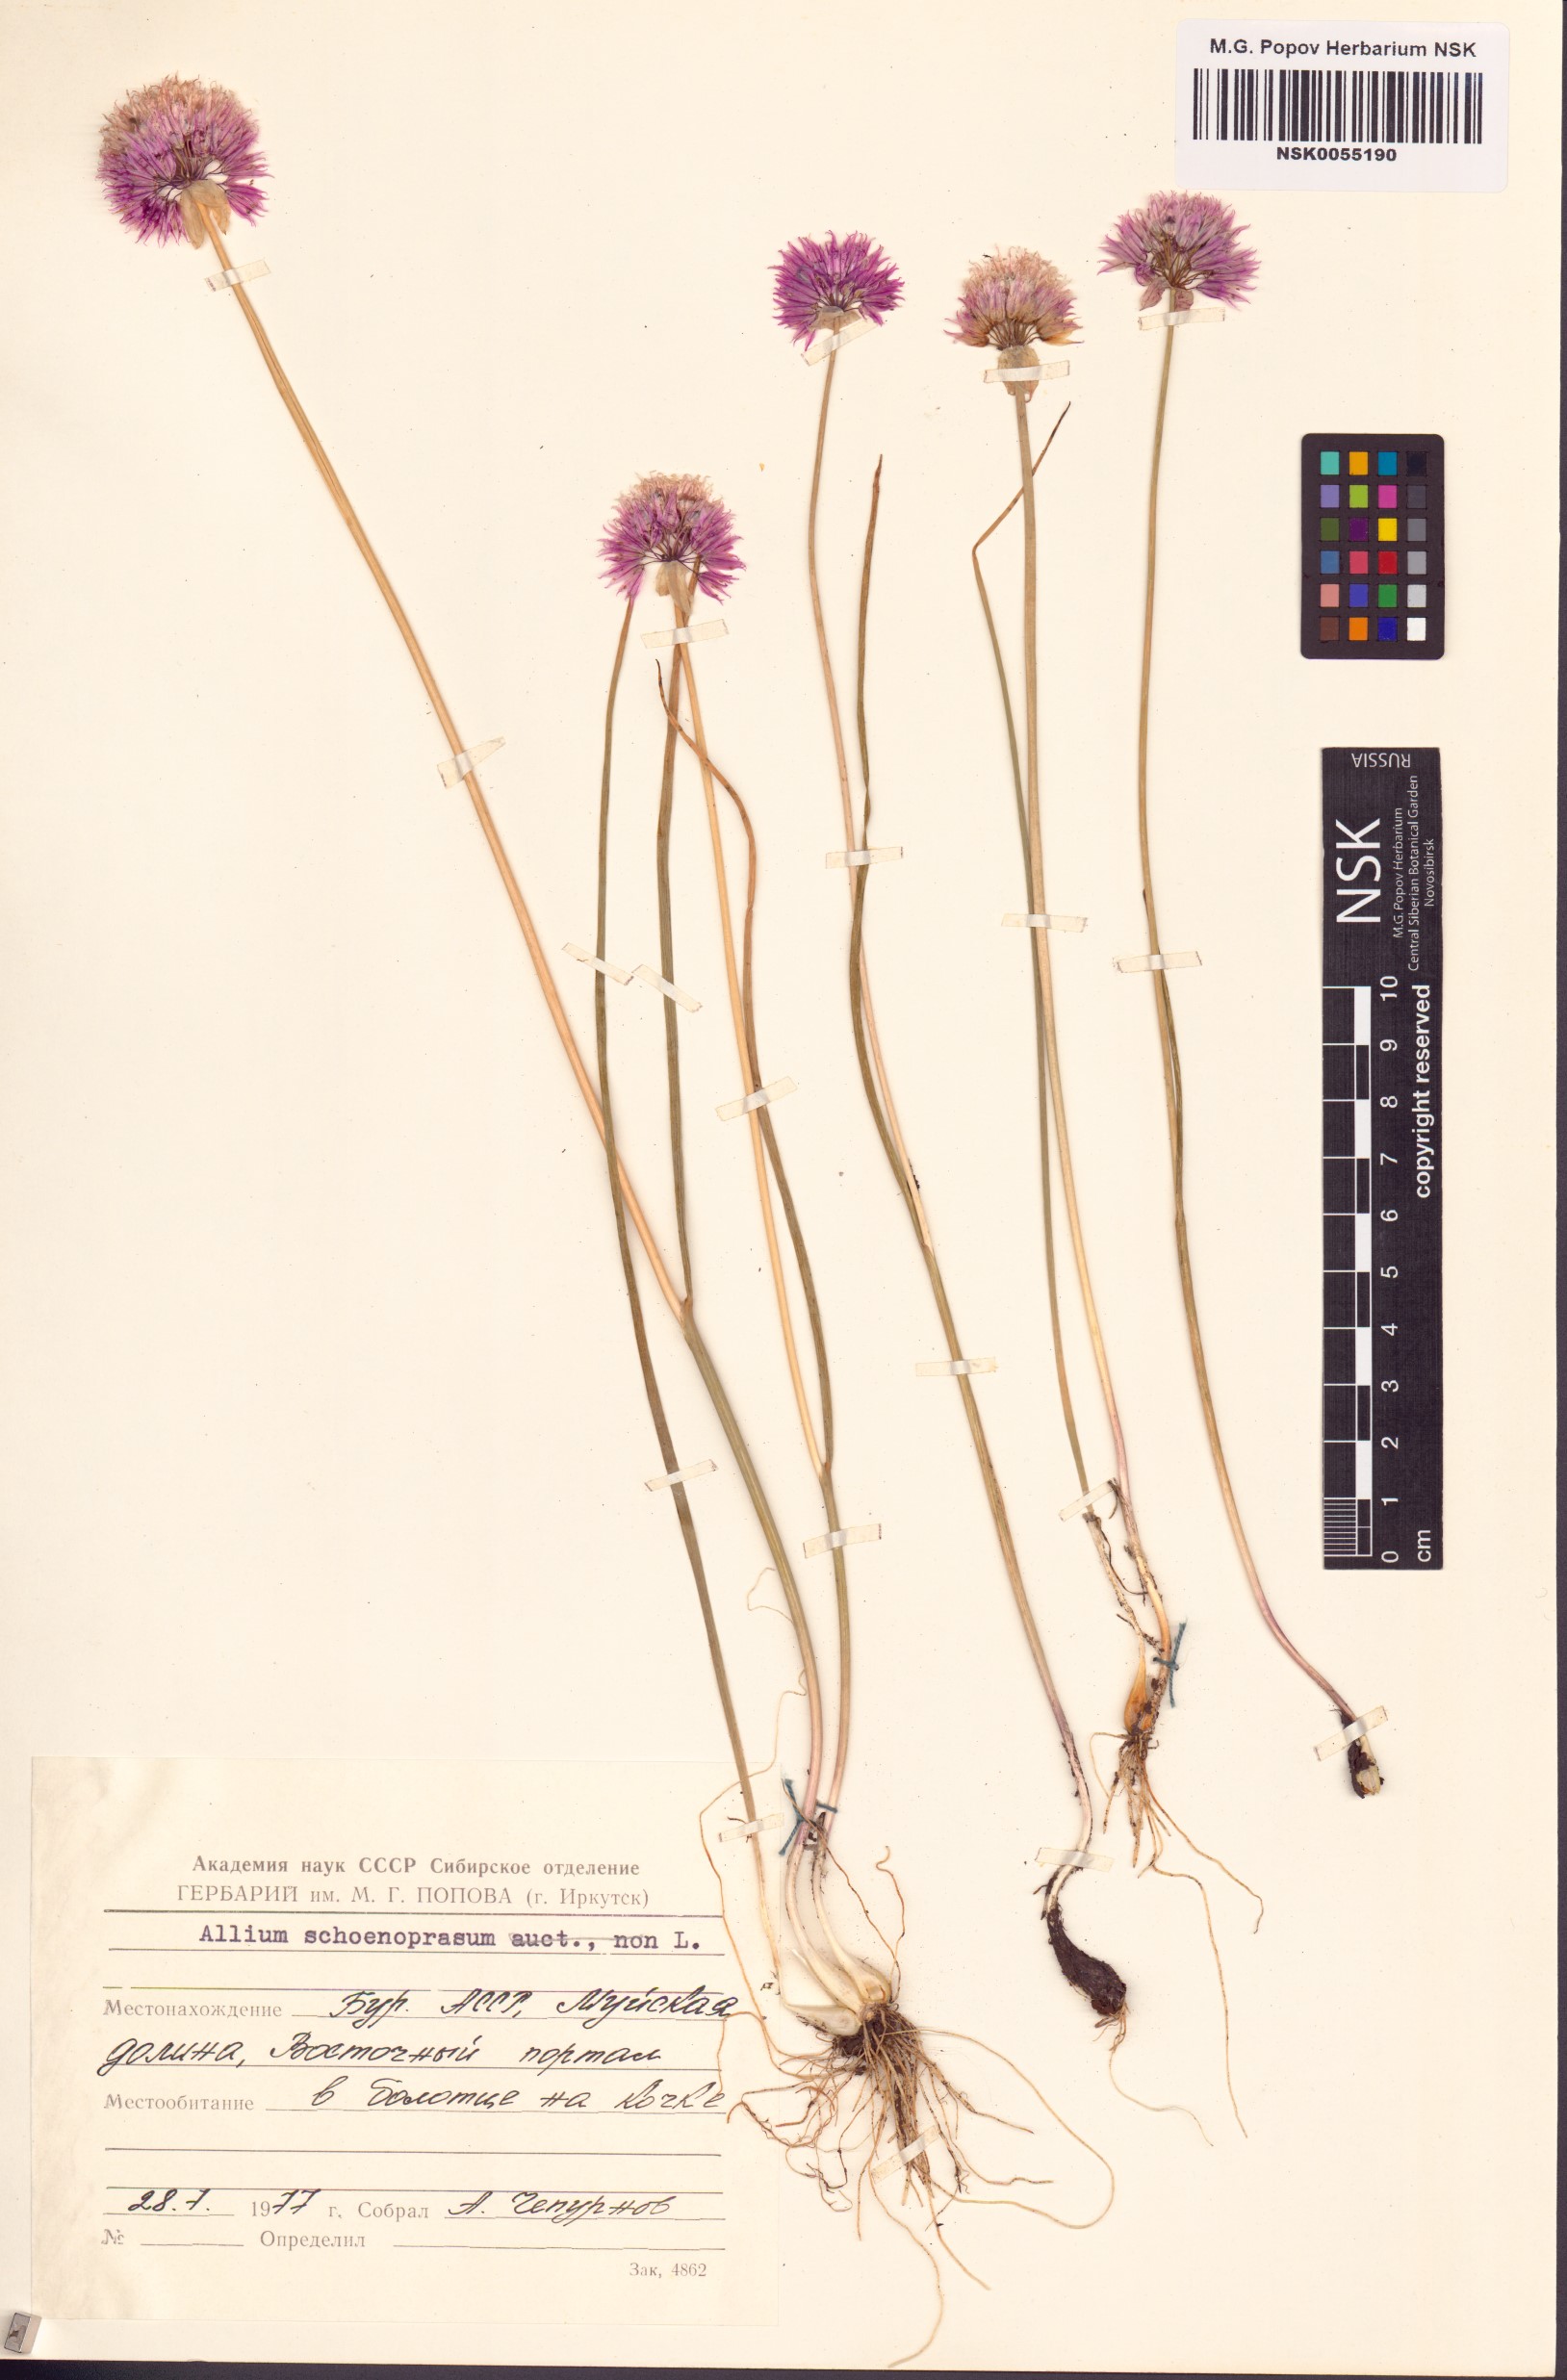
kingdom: Plantae
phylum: Tracheophyta
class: Liliopsida
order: Asparagales
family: Amaryllidaceae
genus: Allium
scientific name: Allium schoenoprasum
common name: Chives
